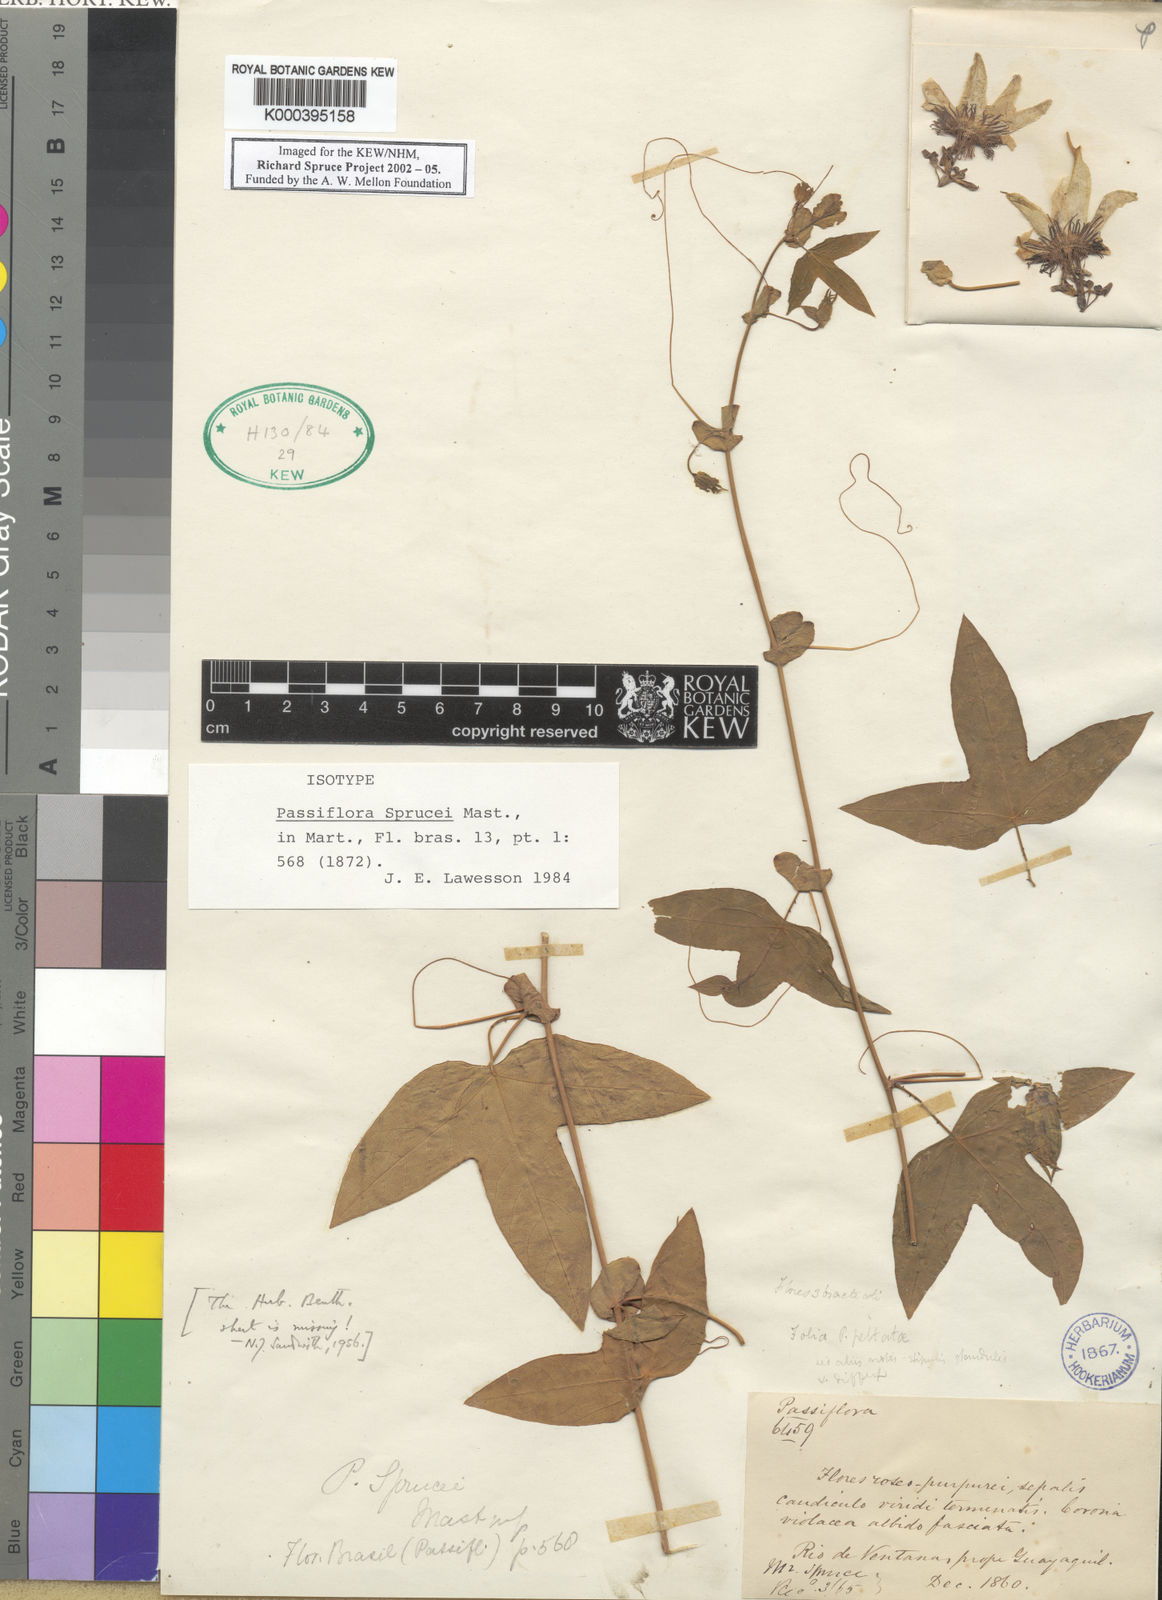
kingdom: Plantae
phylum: Tracheophyta
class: Magnoliopsida
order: Malpighiales
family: Passifloraceae
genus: Passiflora
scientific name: Passiflora sprucei
